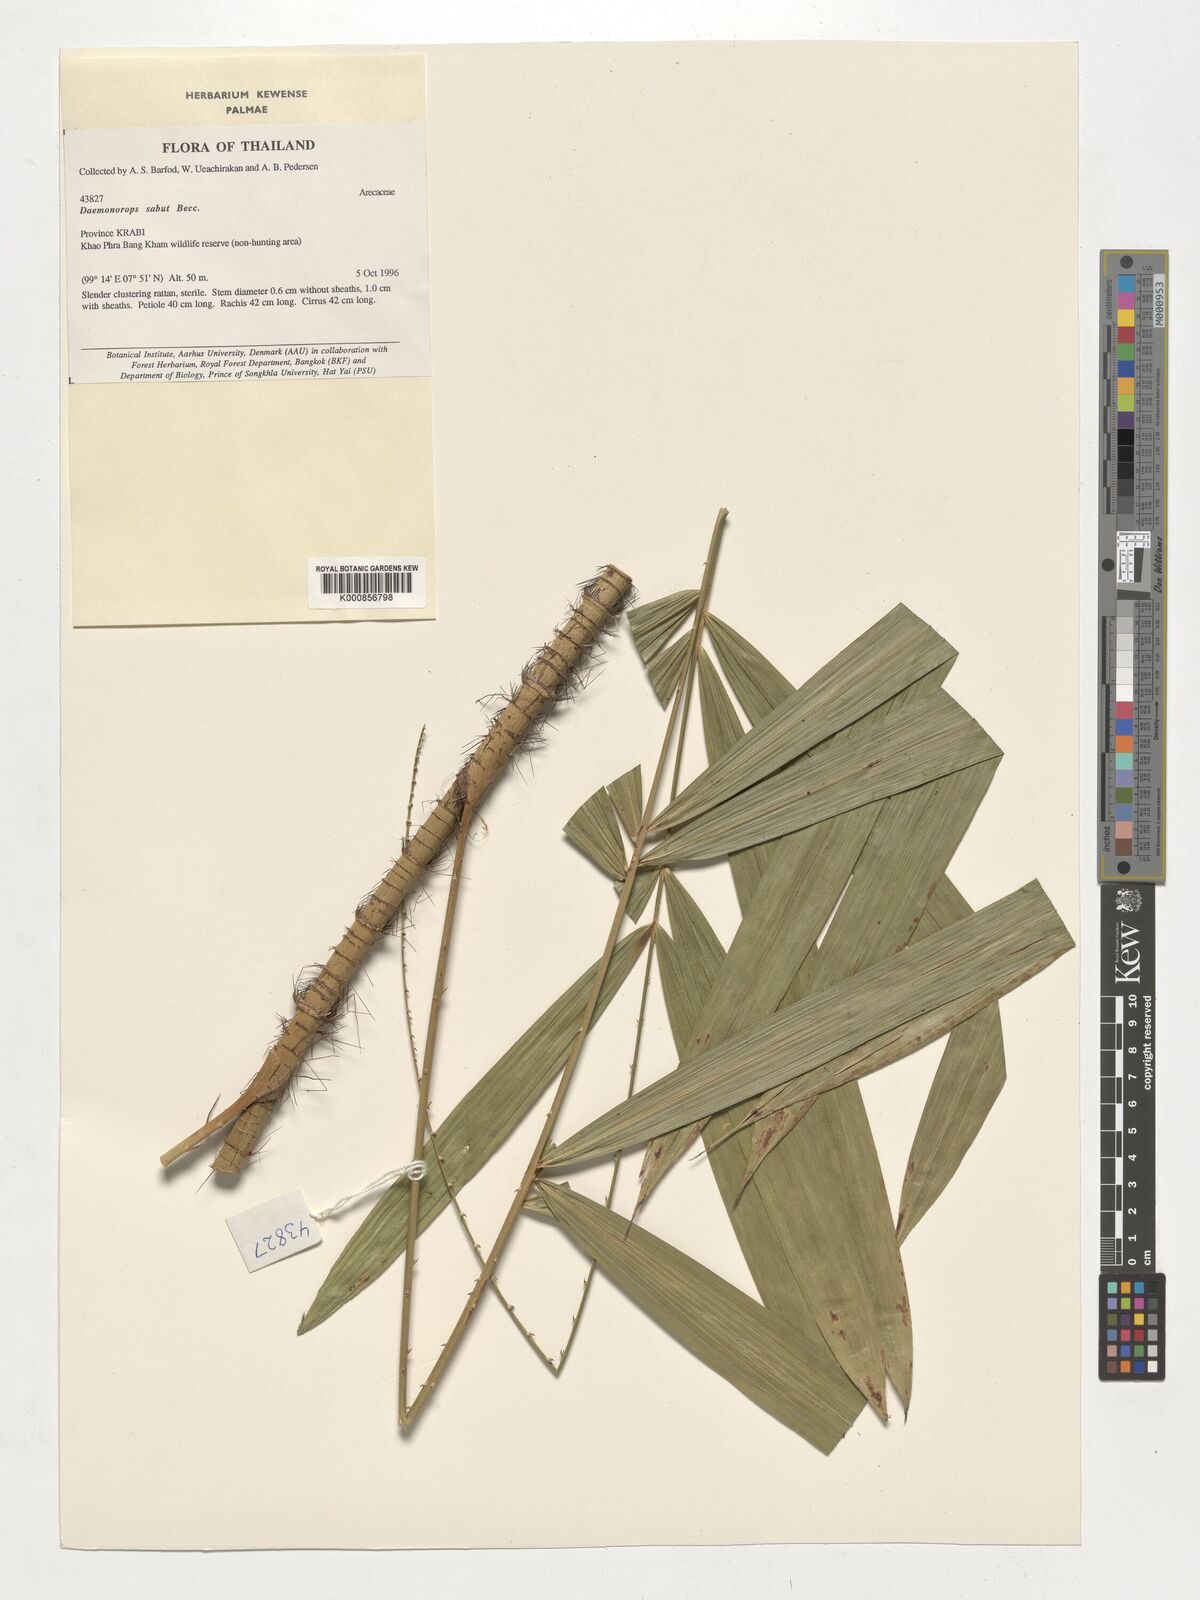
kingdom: Plantae
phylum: Tracheophyta
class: Liliopsida
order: Arecales
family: Arecaceae
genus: Calamus
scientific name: Calamus crinitus
